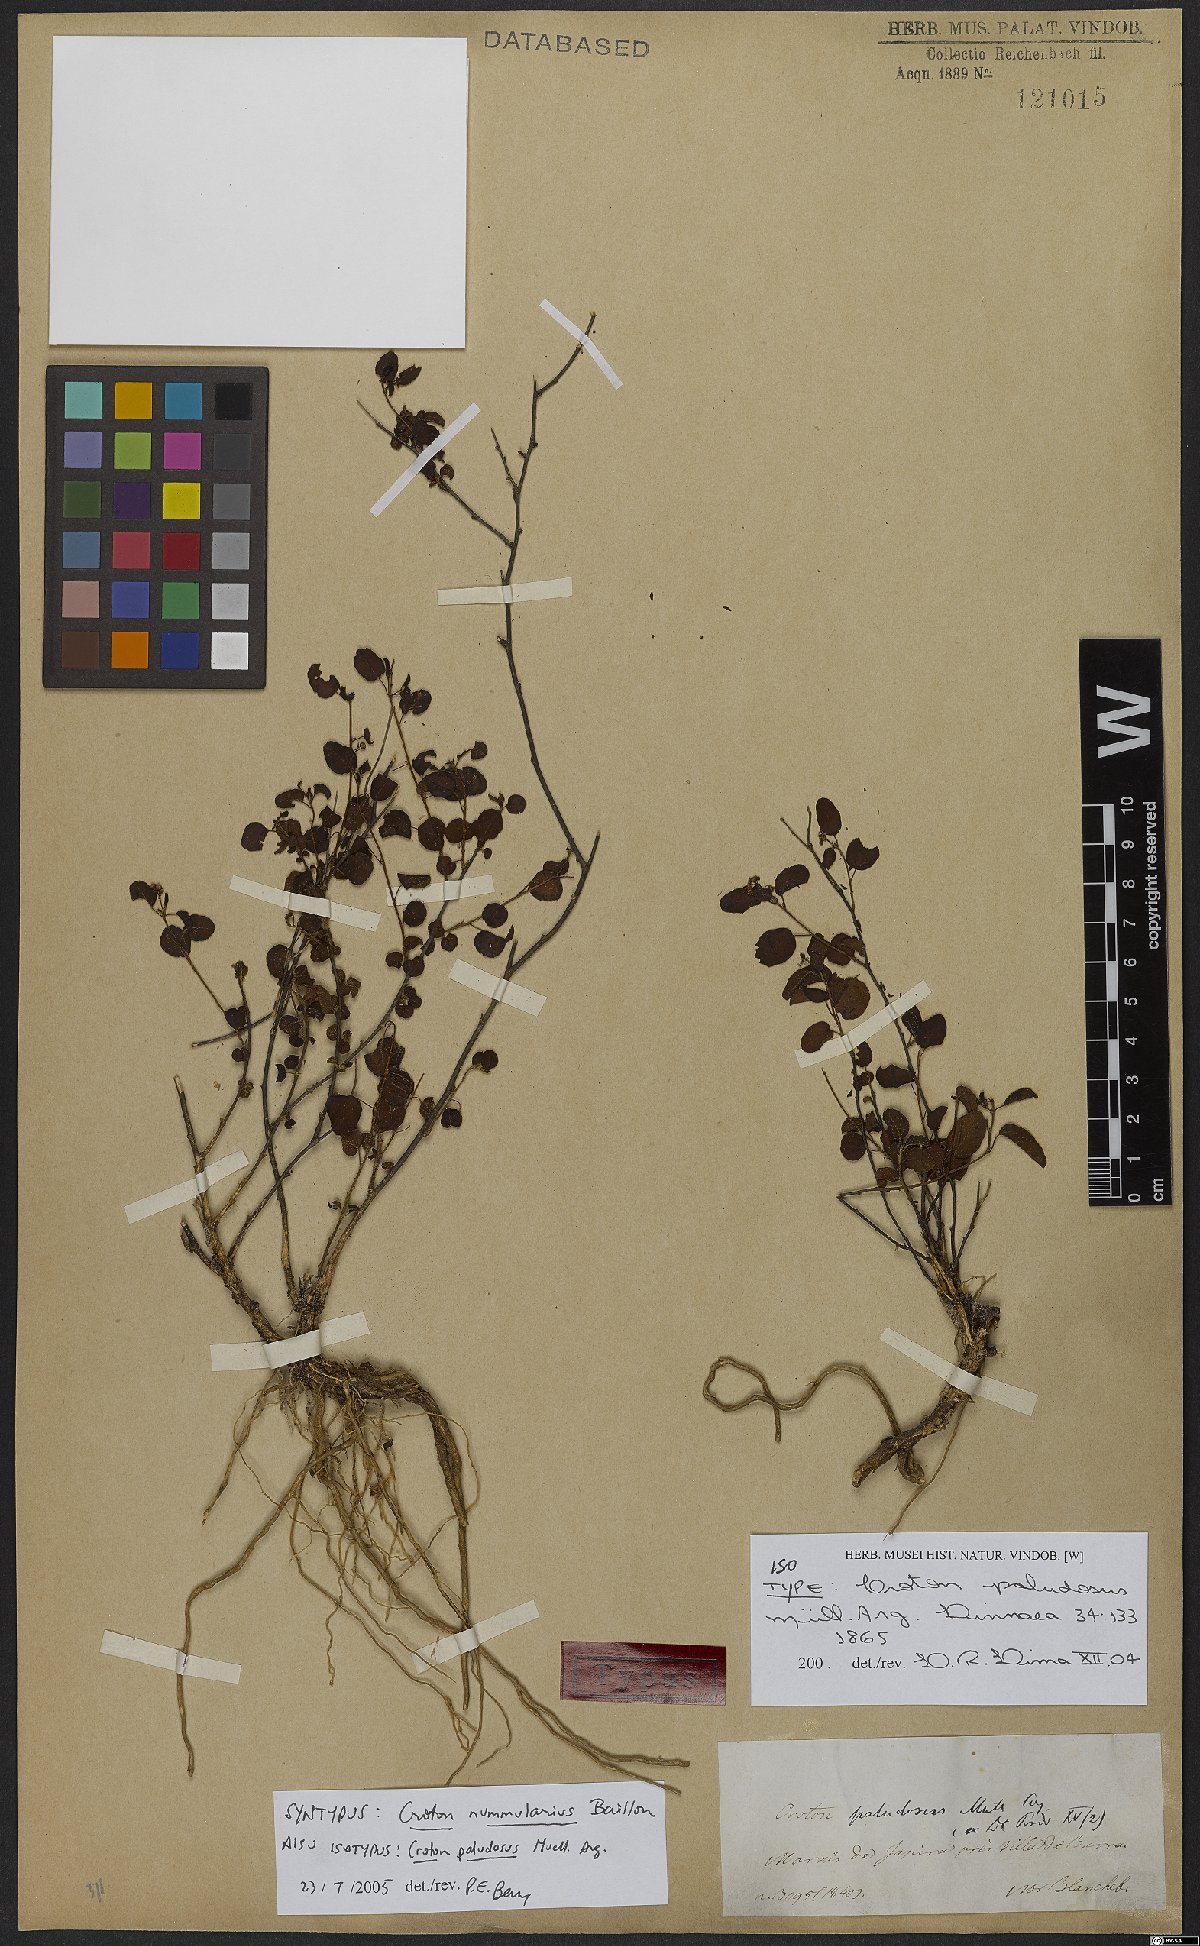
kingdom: Plantae
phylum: Tracheophyta
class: Magnoliopsida
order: Malpighiales
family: Euphorbiaceae
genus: Croton
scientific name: Croton paludosus
